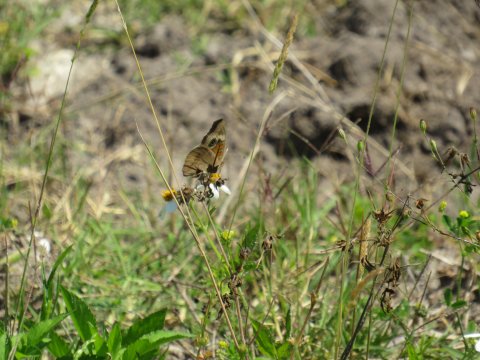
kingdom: Animalia
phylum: Arthropoda
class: Insecta
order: Lepidoptera
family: Nymphalidae
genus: Junonia
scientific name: Junonia coenia
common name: Common Buckeye
